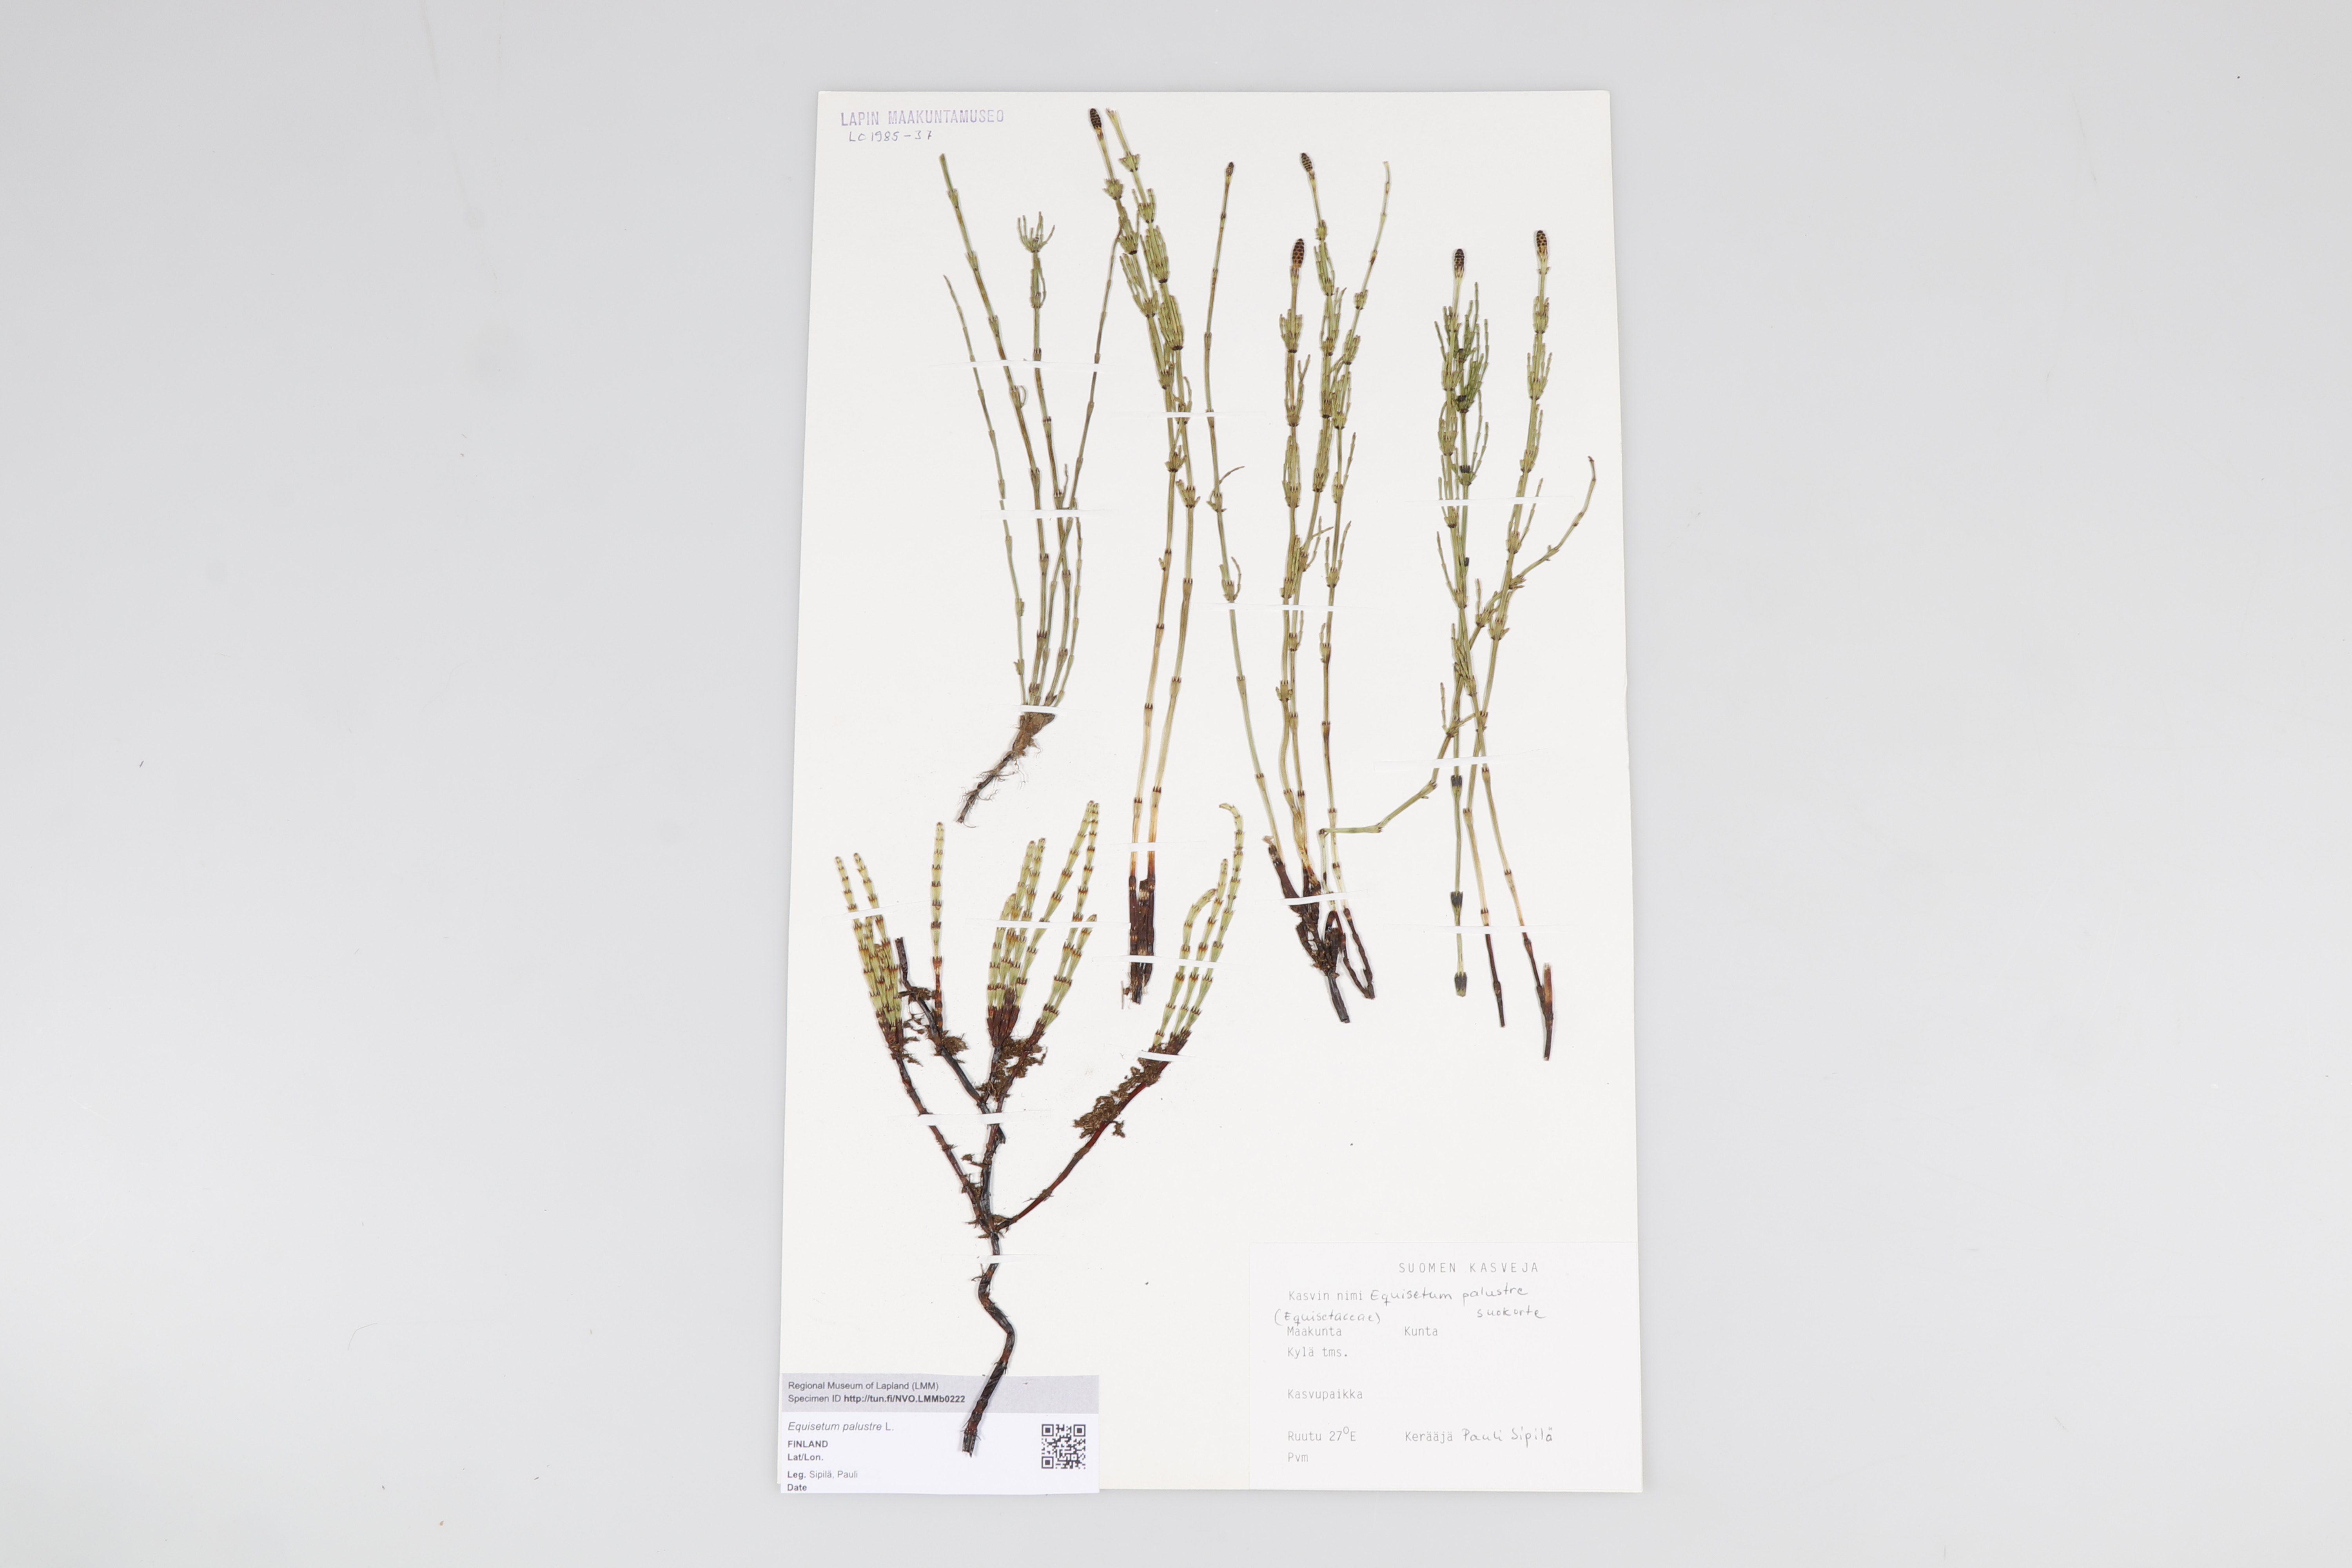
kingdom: Plantae
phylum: Tracheophyta
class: Polypodiopsida
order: Equisetales
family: Equisetaceae
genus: Equisetum
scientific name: Equisetum palustre
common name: Marsh horsetail
